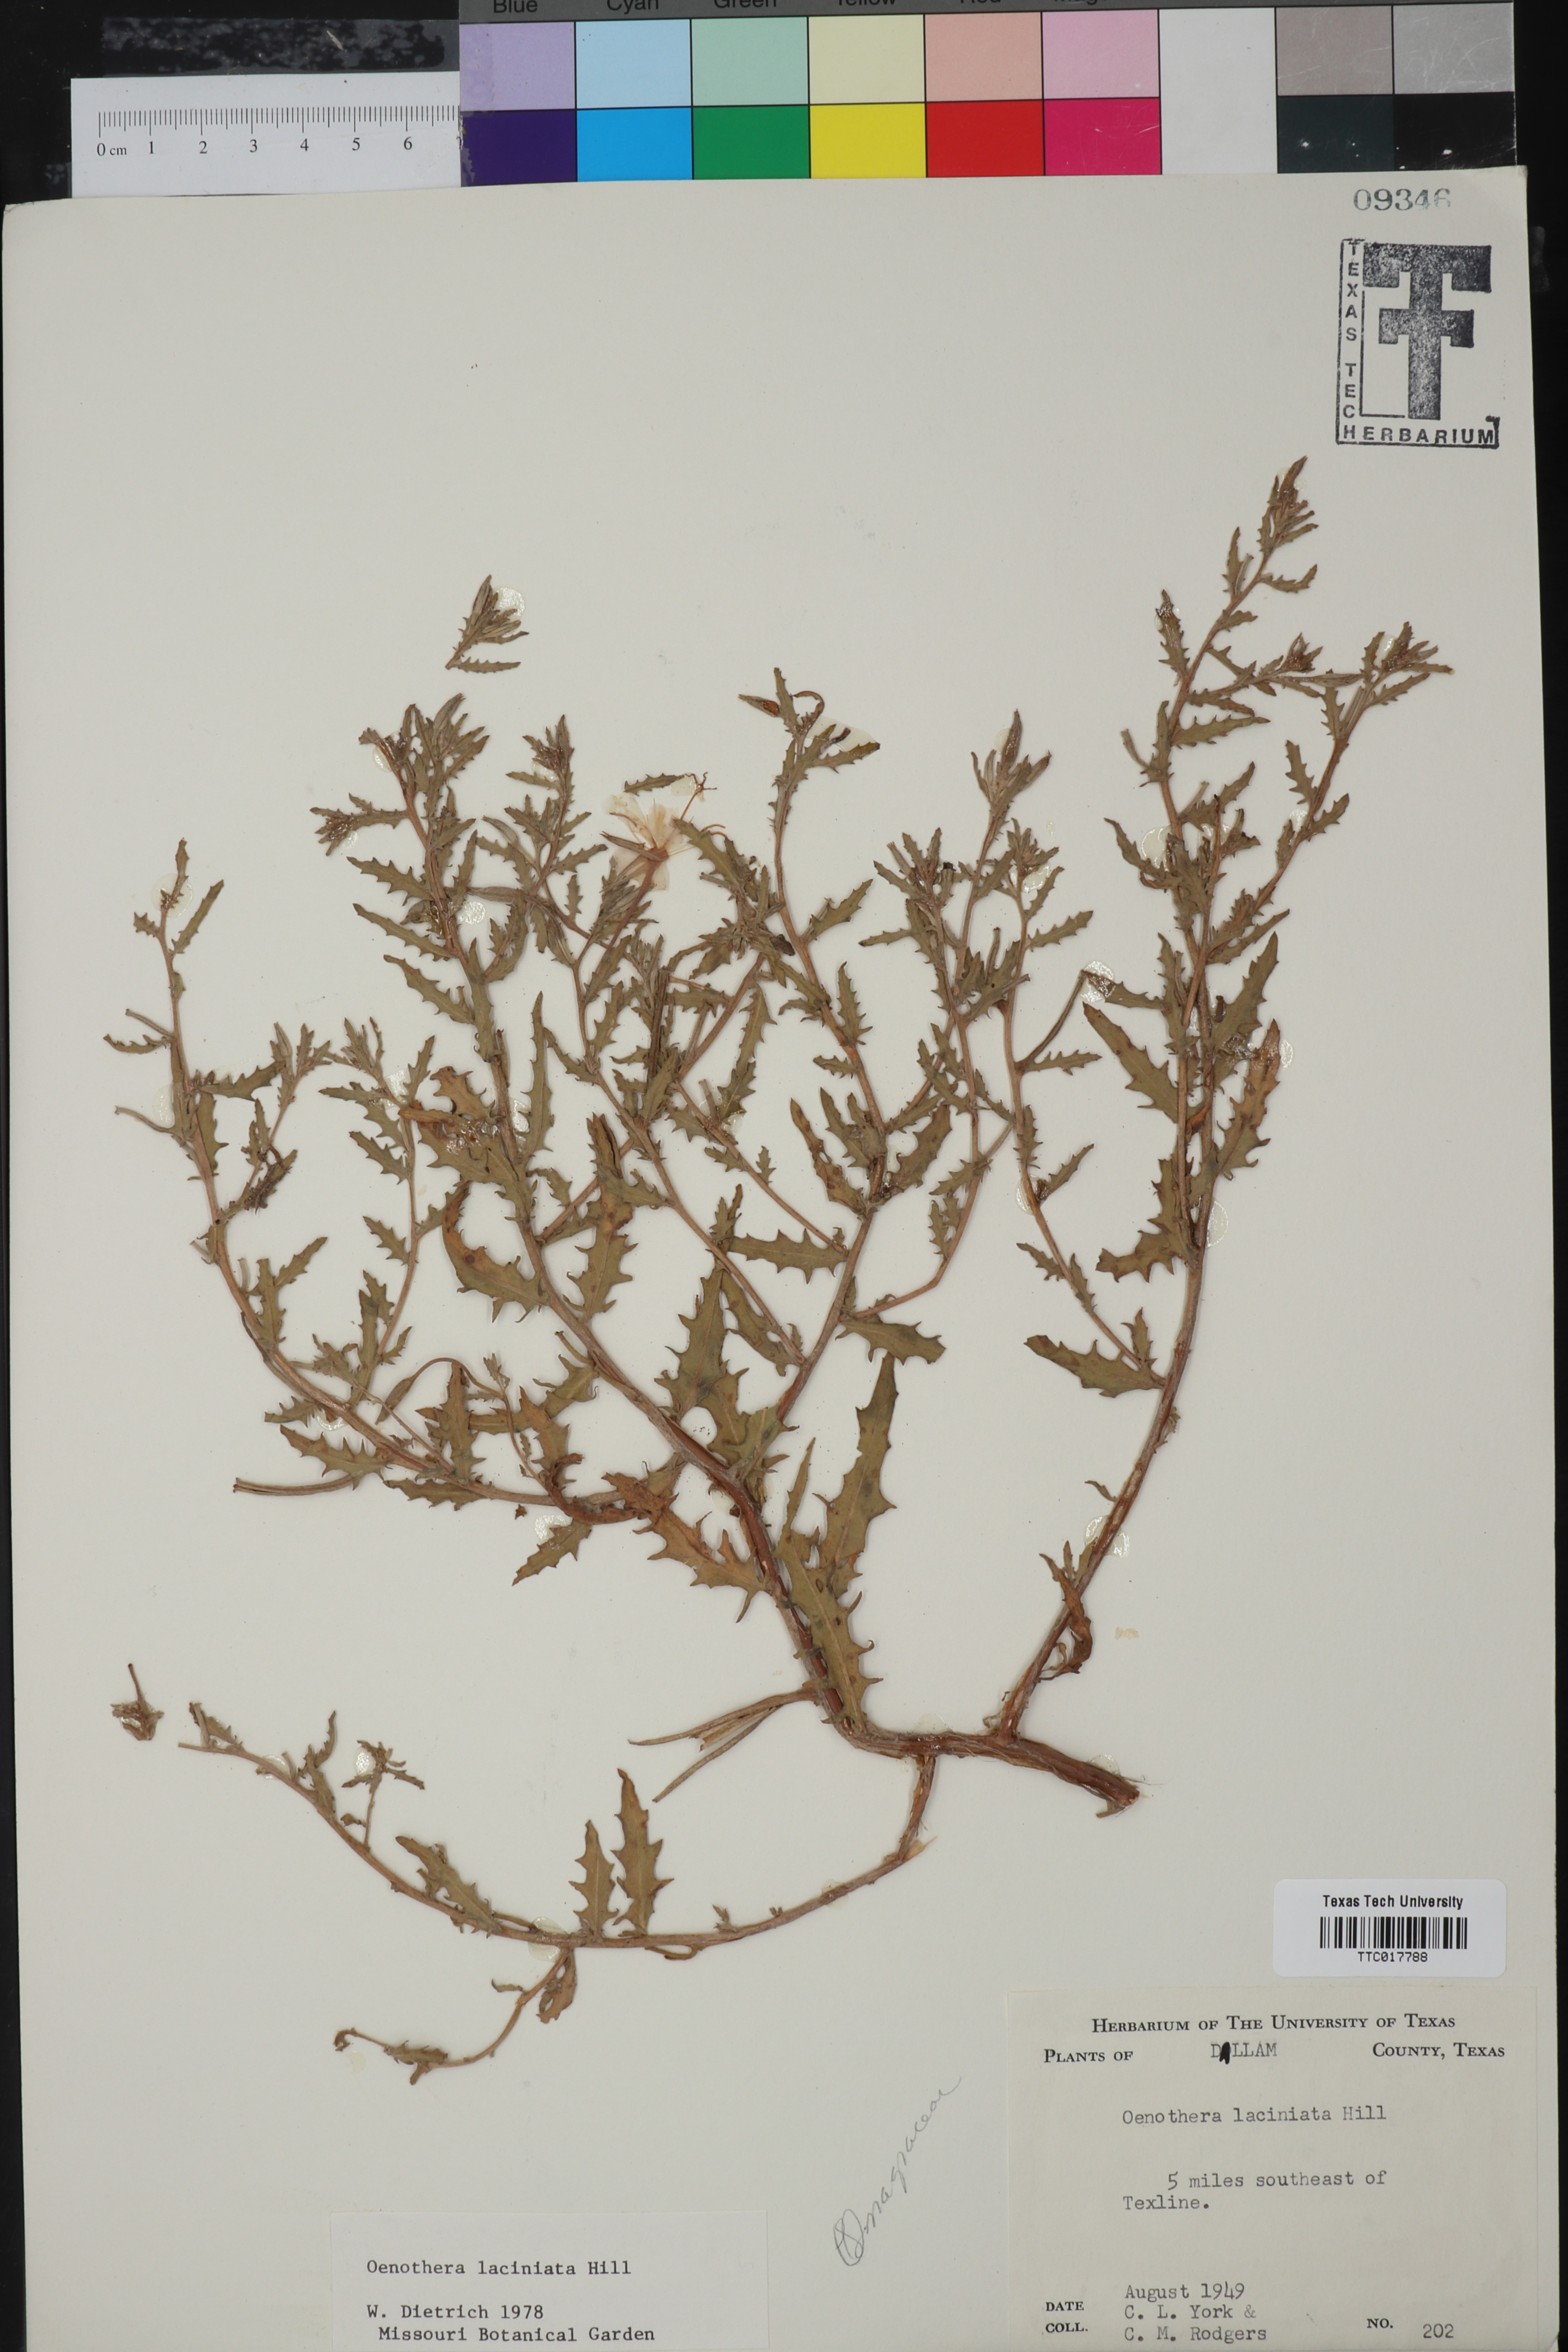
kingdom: Plantae
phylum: Tracheophyta
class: Magnoliopsida
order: Myrtales
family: Onagraceae
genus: Oenothera
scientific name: Oenothera laciniata
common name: Cut-leaved evening-primrose
